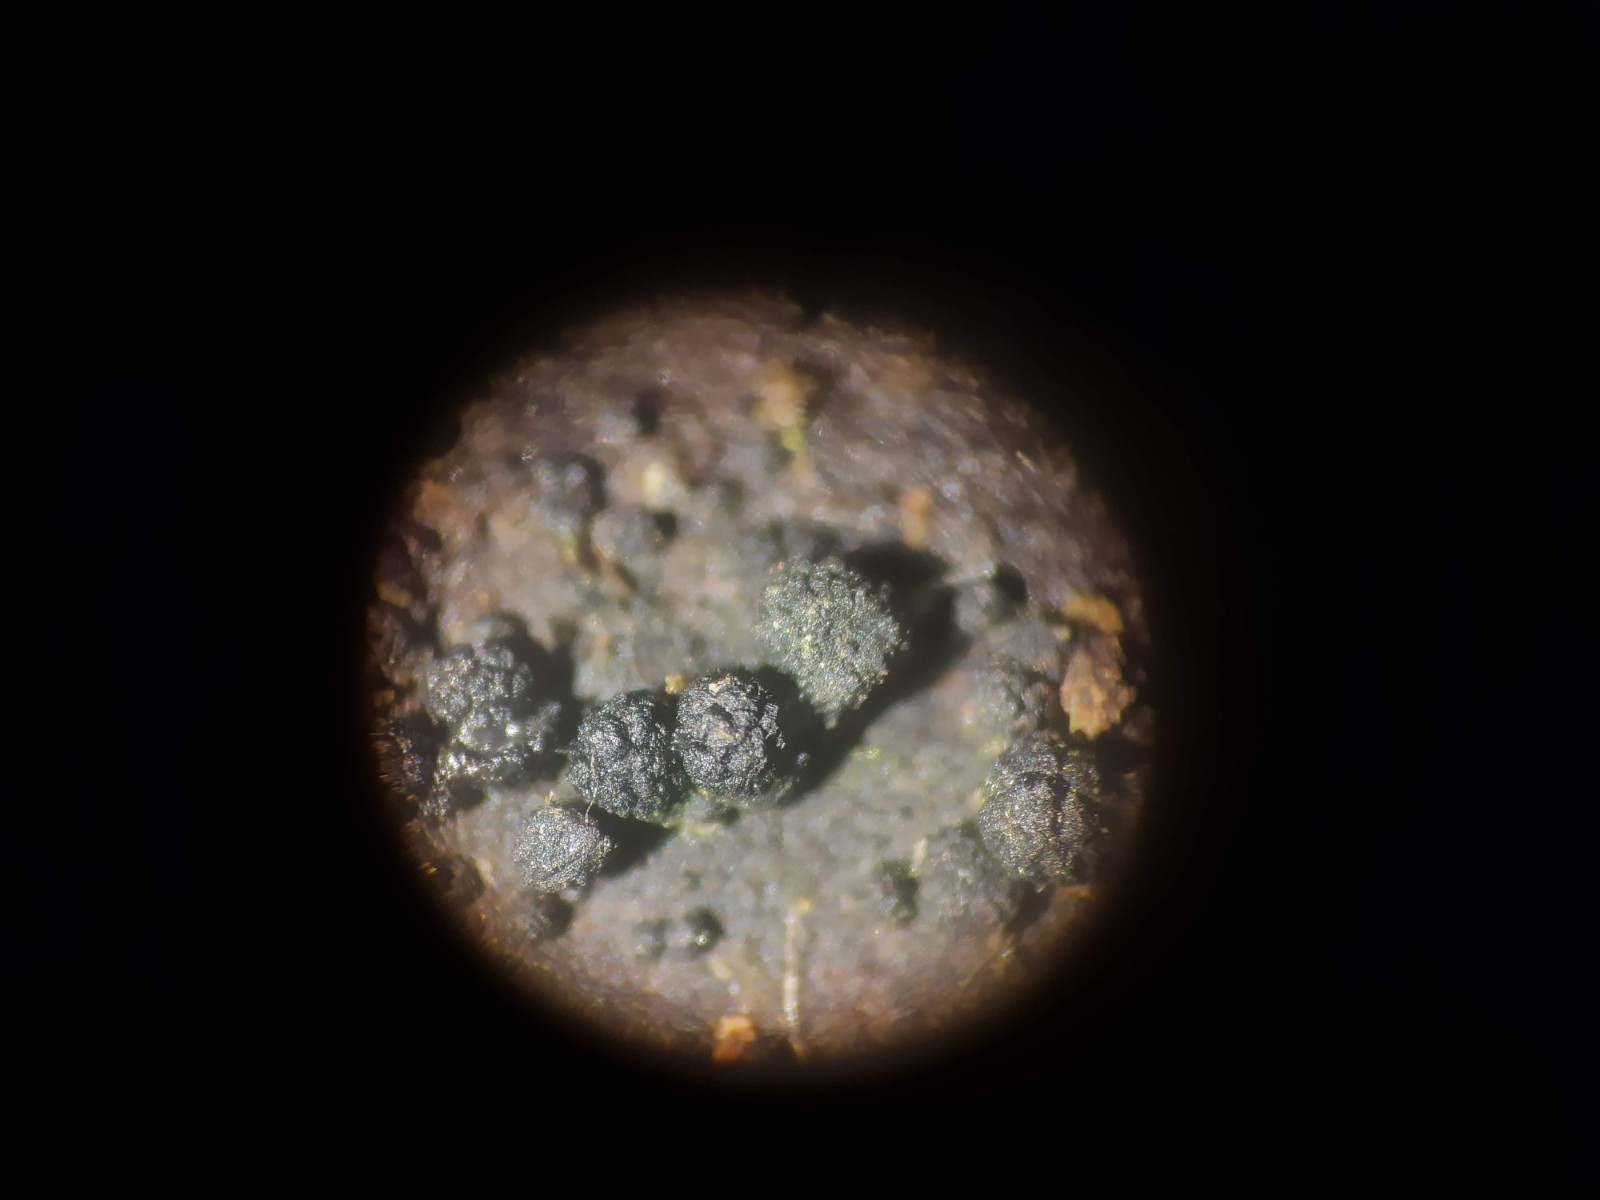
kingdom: Fungi
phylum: Ascomycota
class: Sordariomycetes
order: Coronophorales
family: Bertiaceae
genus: Bertia
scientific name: Bertia moriformis
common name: almindelig morbærkerne
